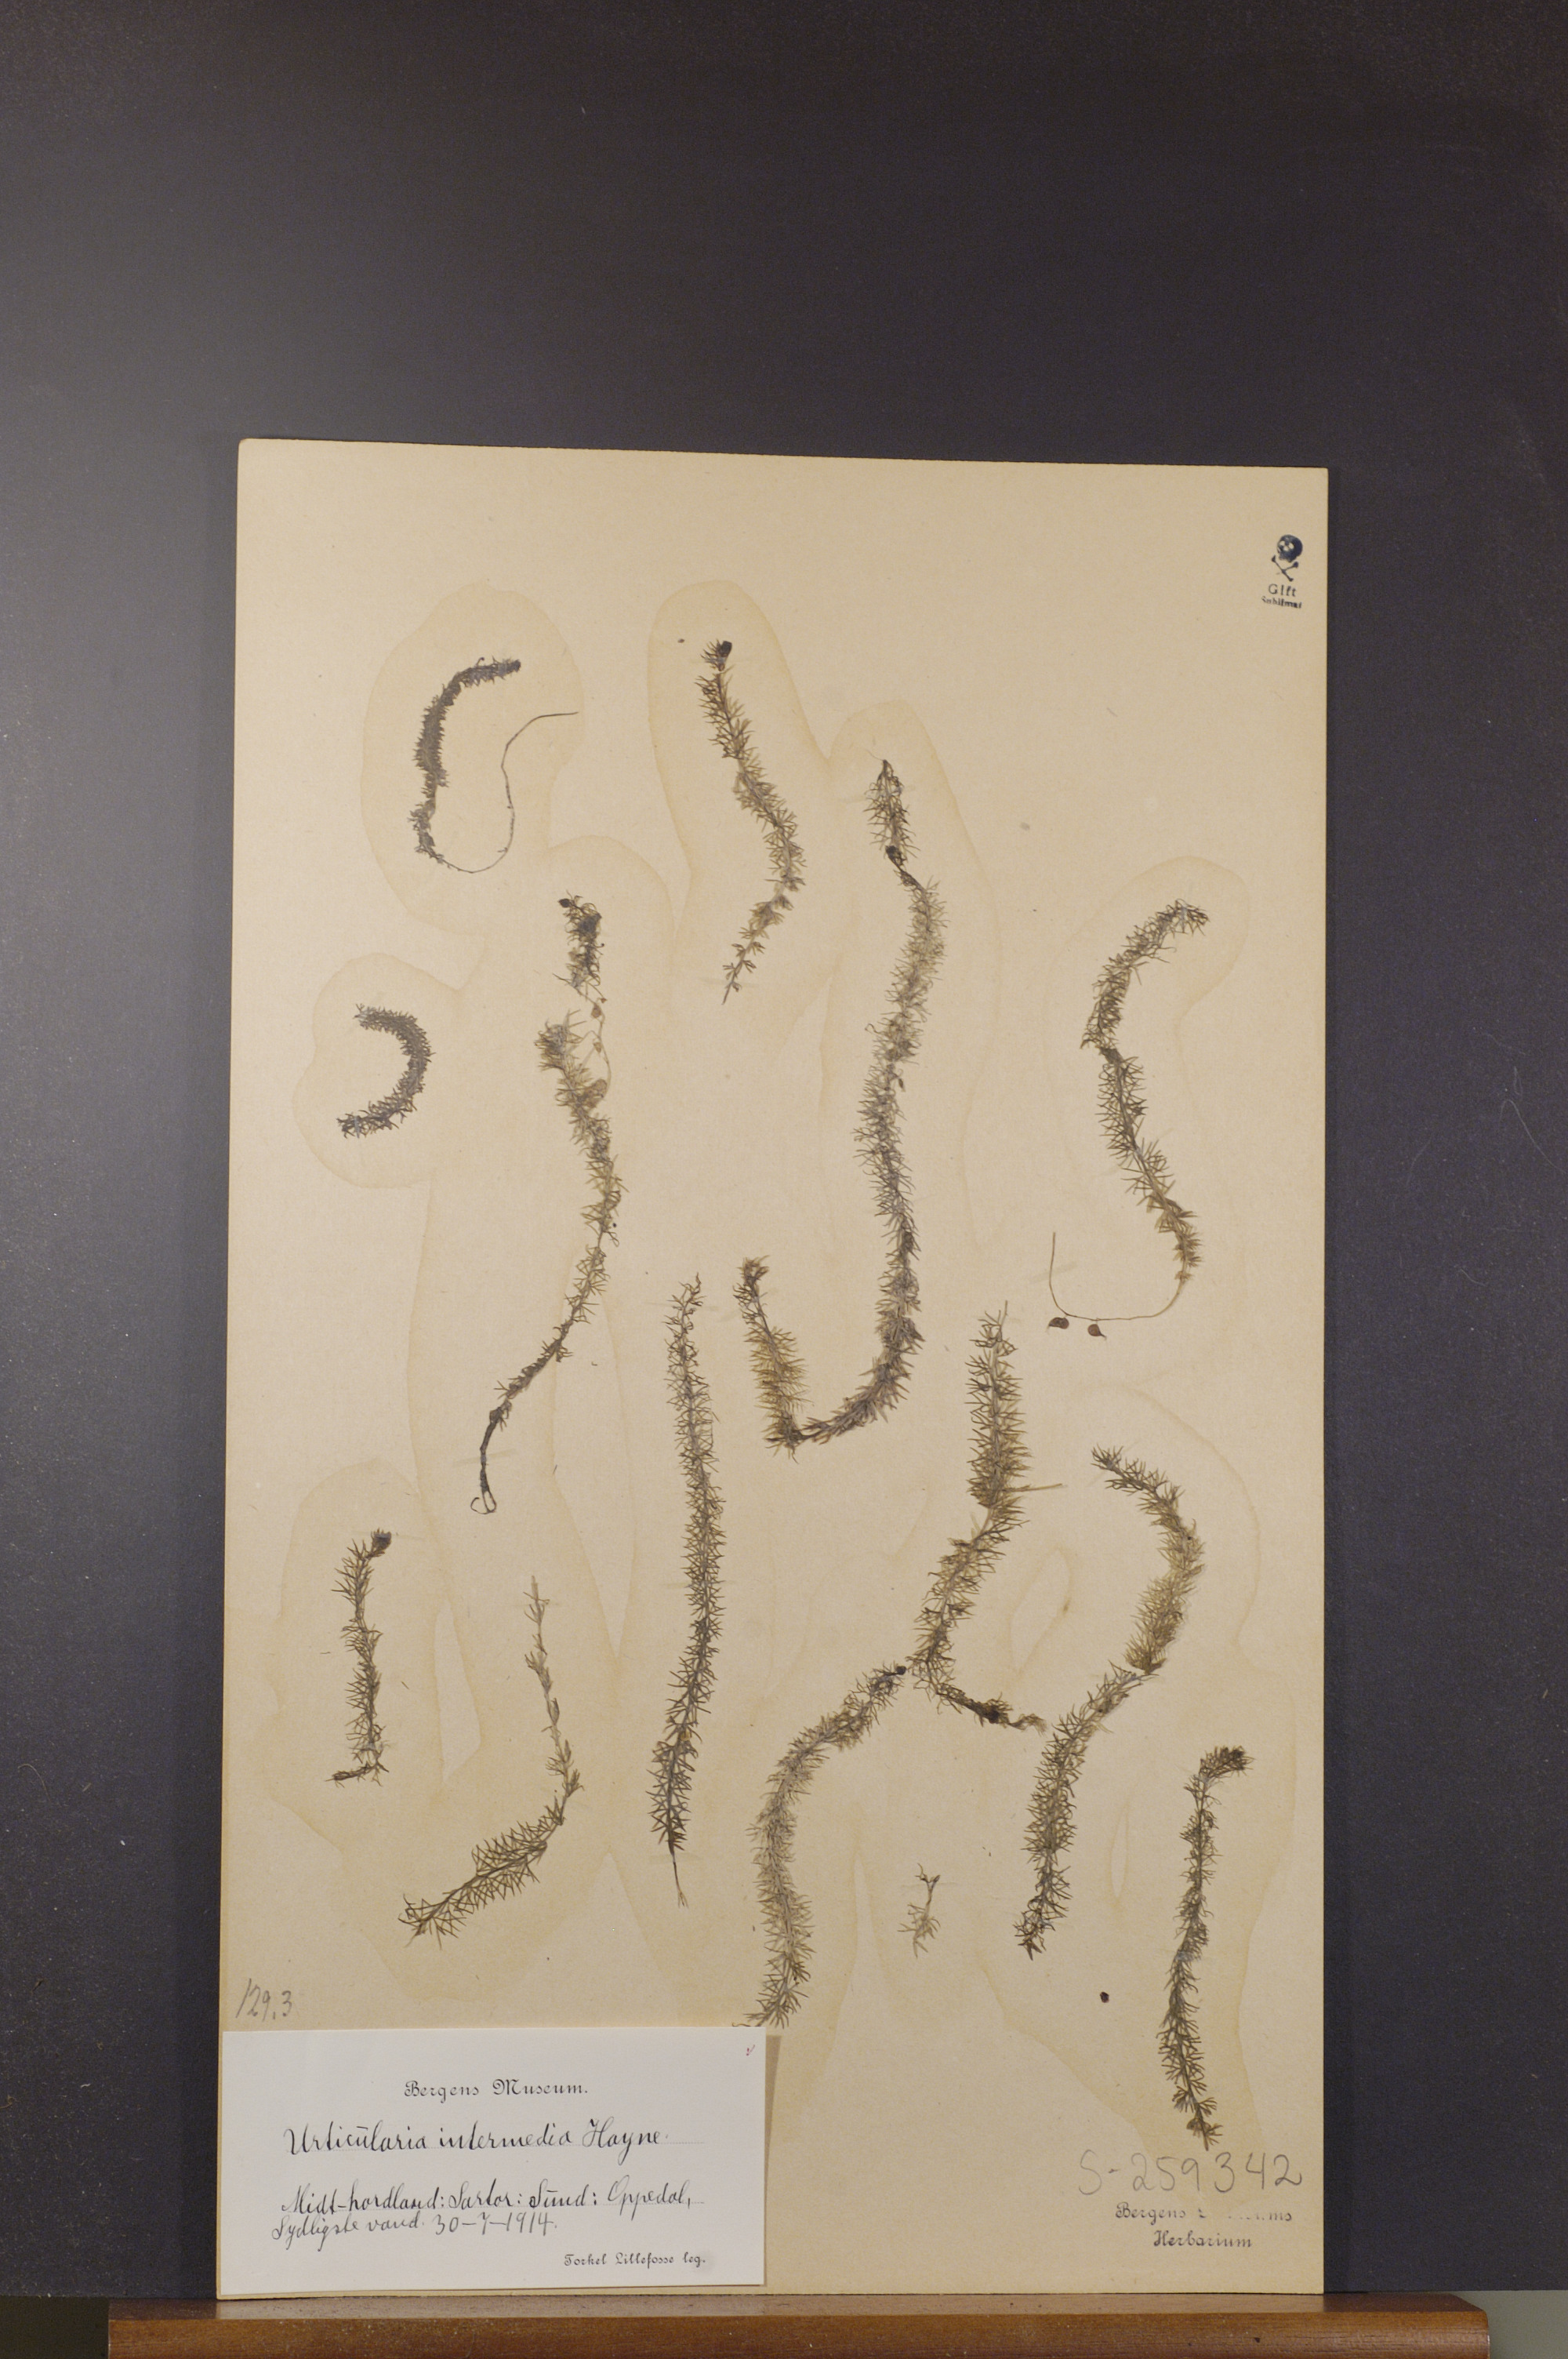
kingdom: Plantae
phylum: Tracheophyta
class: Magnoliopsida
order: Lamiales
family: Lentibulariaceae
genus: Utricularia
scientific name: Utricularia intermedia
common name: Intermediate bladderwort
